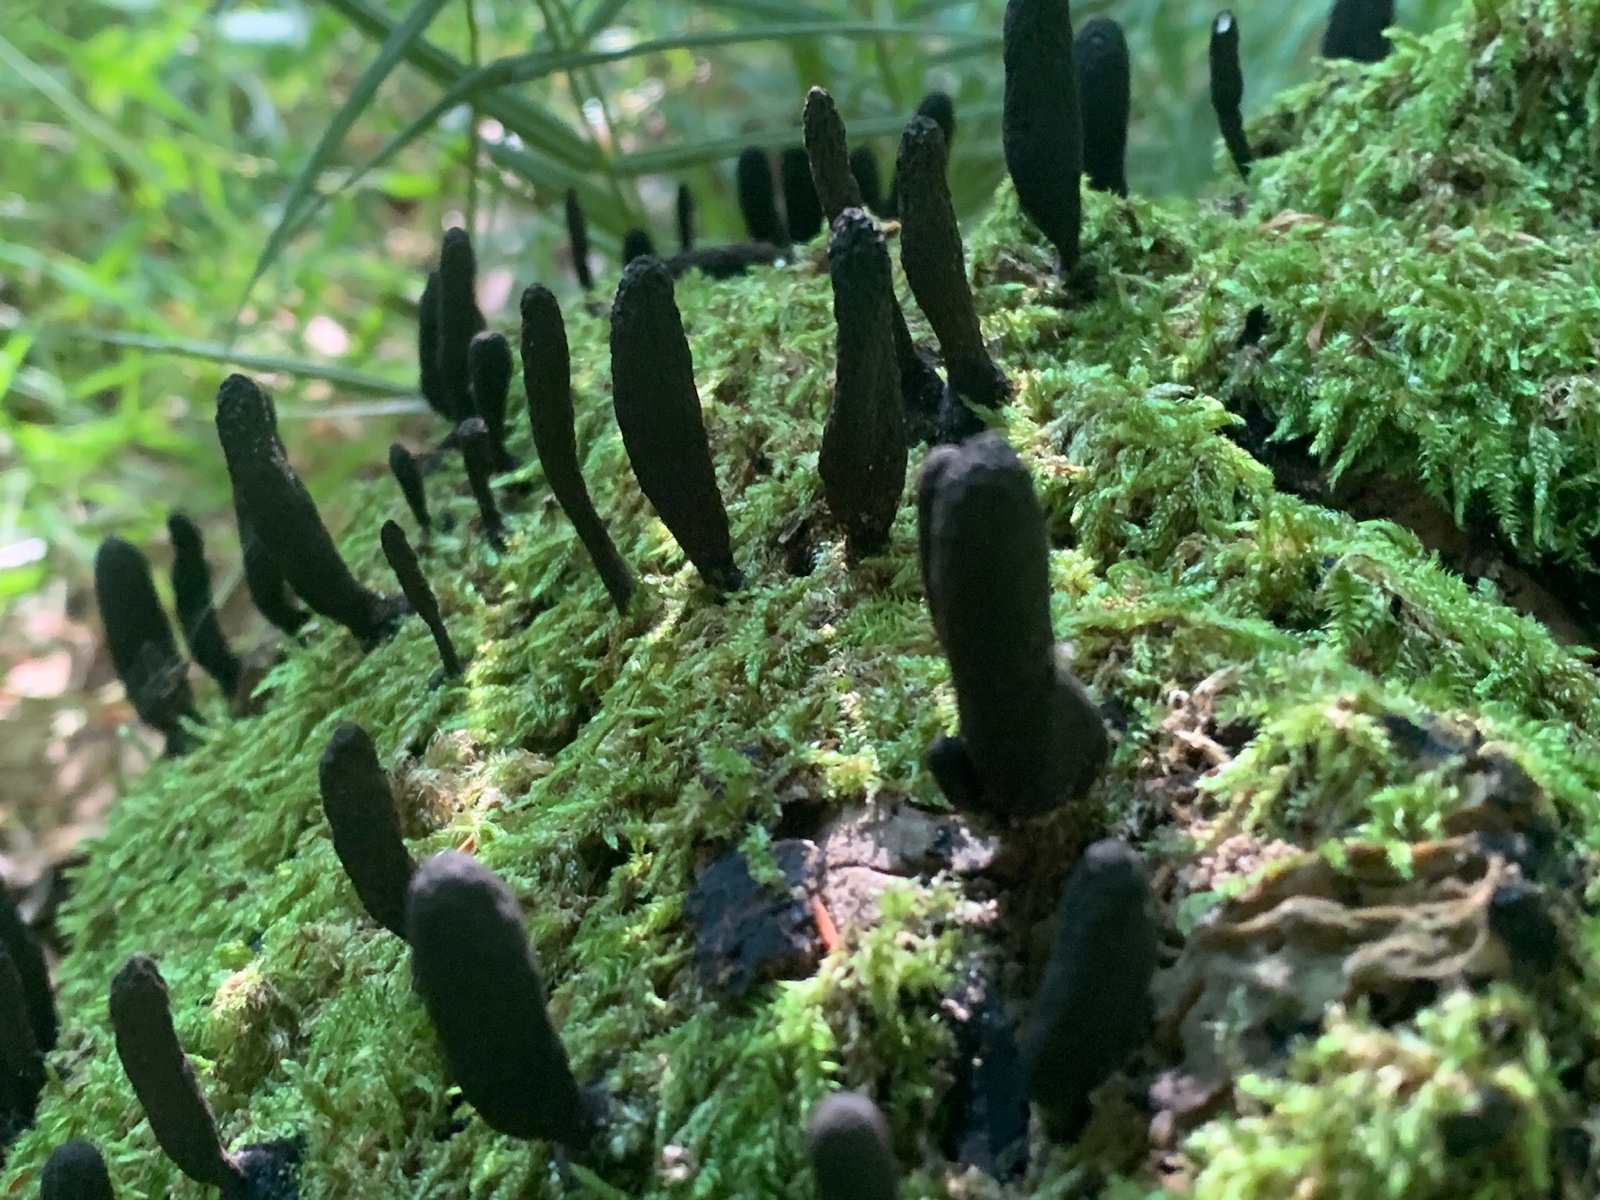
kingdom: Fungi
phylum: Ascomycota
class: Sordariomycetes
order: Xylariales
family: Xylariaceae
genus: Xylaria
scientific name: Xylaria longipes
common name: slank stødsvamp
